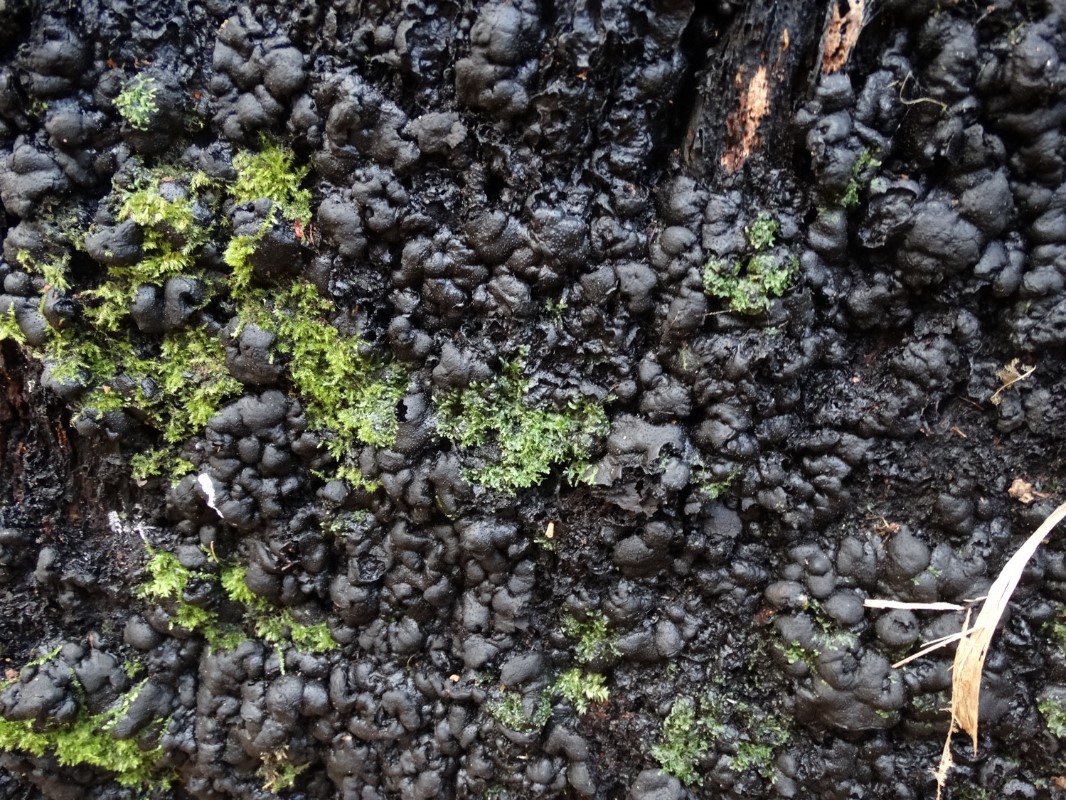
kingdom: Fungi
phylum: Ascomycota
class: Sordariomycetes
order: Xylariales
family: Xylariaceae
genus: Kretzschmaria
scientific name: Kretzschmaria deusta
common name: stor kulsvamp
